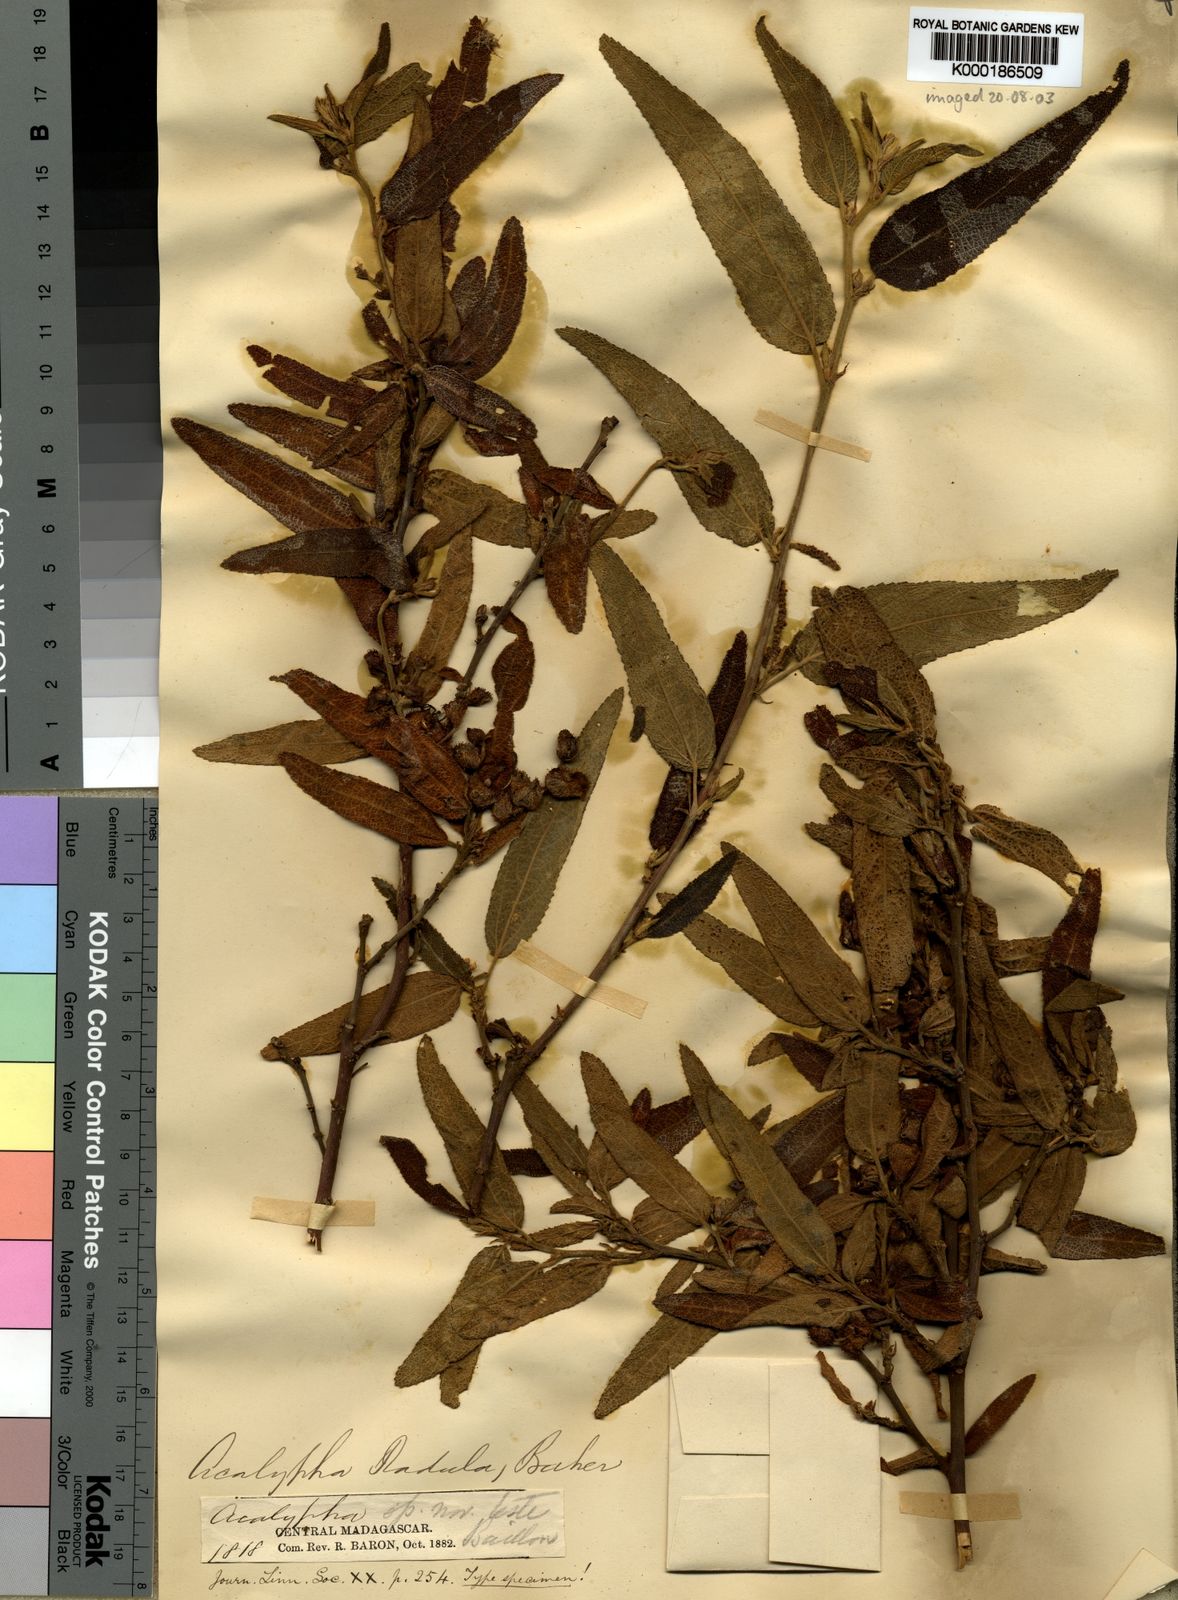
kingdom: Plantae
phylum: Tracheophyta
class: Magnoliopsida
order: Malpighiales
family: Euphorbiaceae
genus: Acalypha
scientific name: Acalypha radula
